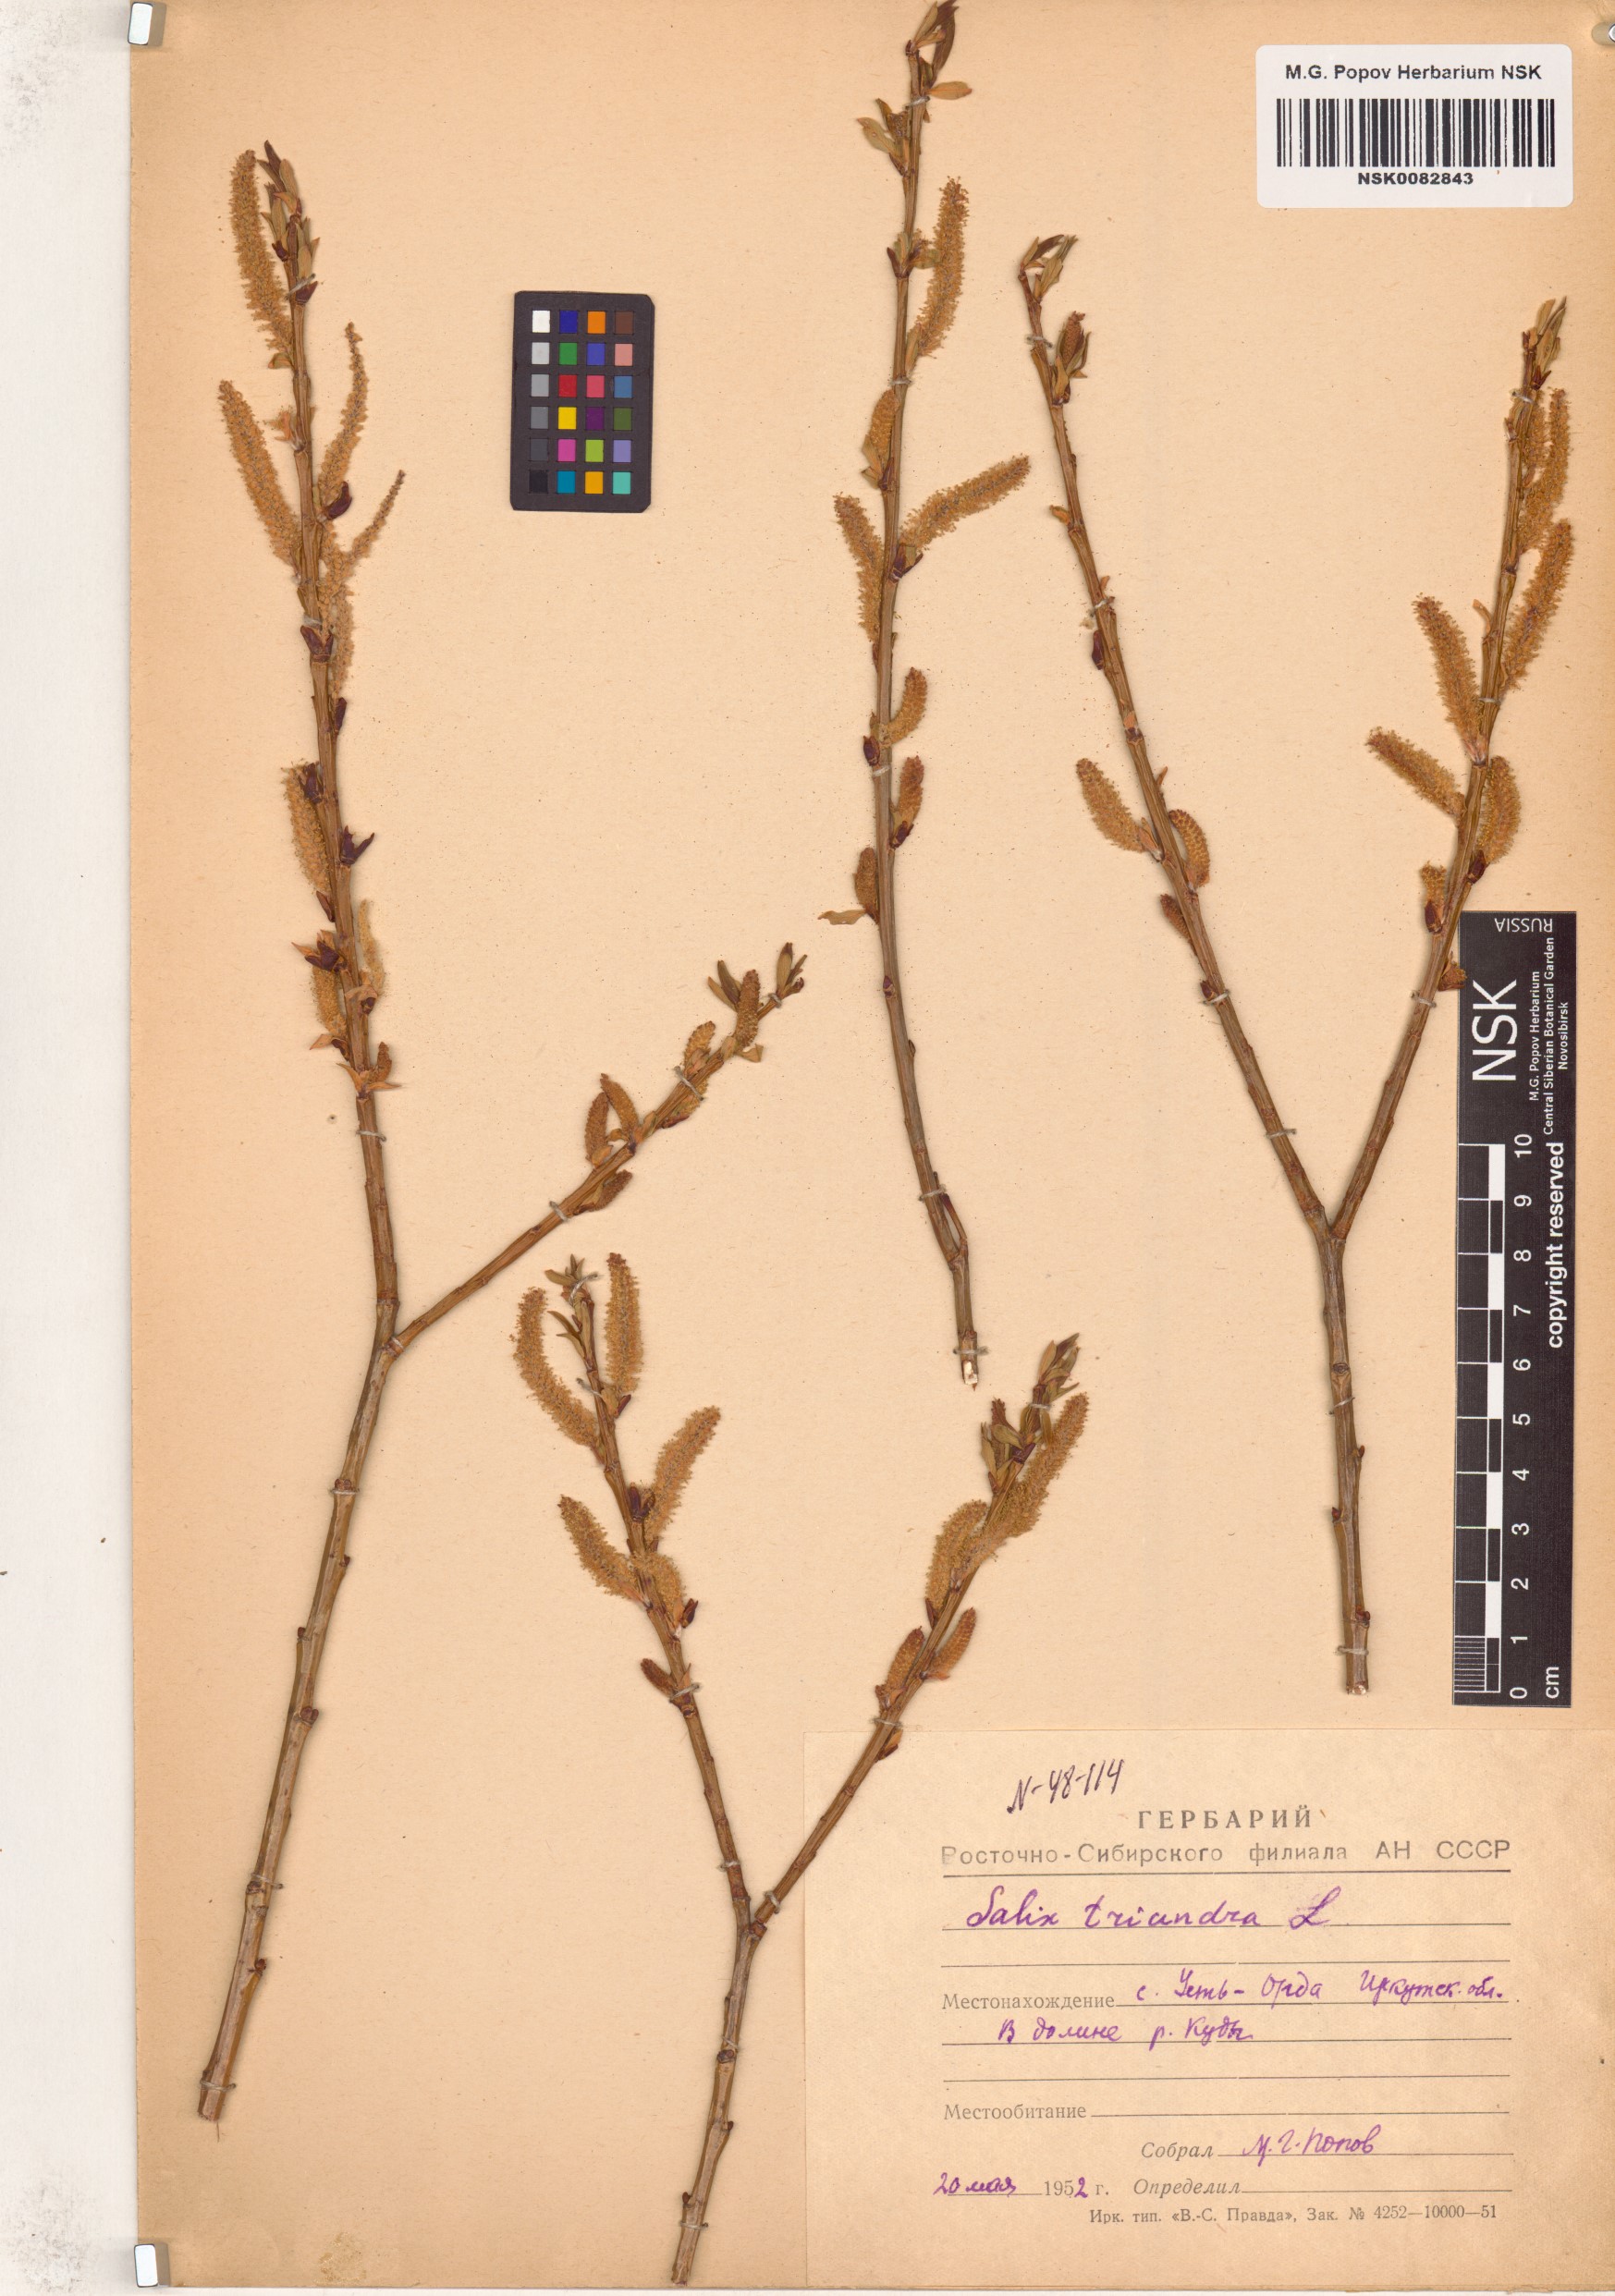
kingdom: Plantae
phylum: Tracheophyta
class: Magnoliopsida
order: Malpighiales
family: Salicaceae
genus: Salix
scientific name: Salix triandra
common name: Almond willow
